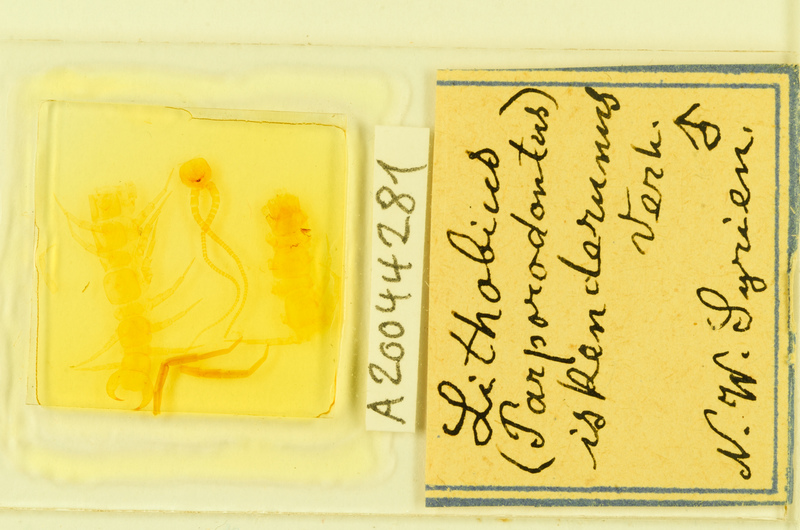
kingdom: Animalia
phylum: Arthropoda
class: Chilopoda
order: Lithobiomorpha
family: Lithobiidae
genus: Lithobius
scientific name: Lithobius
